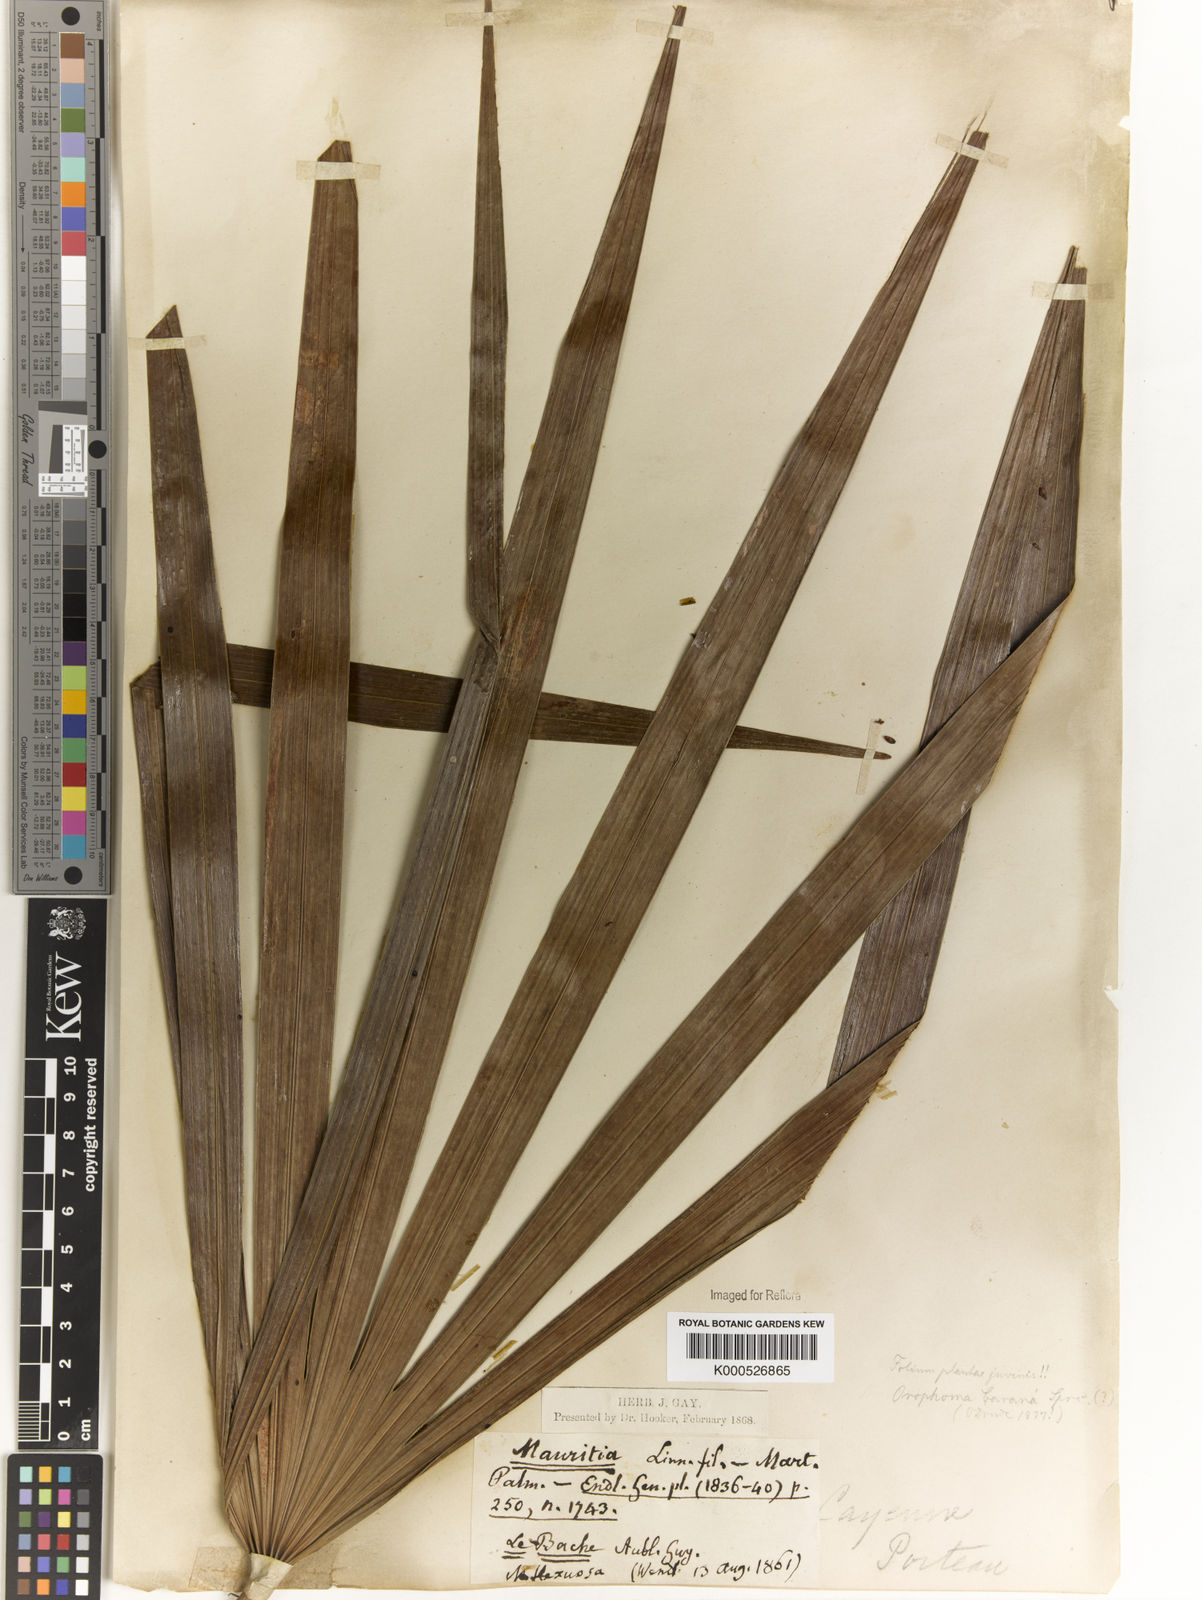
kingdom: Plantae
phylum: Tracheophyta
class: Liliopsida
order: Arecales
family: Arecaceae
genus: Mauritia
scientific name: Mauritia carana
